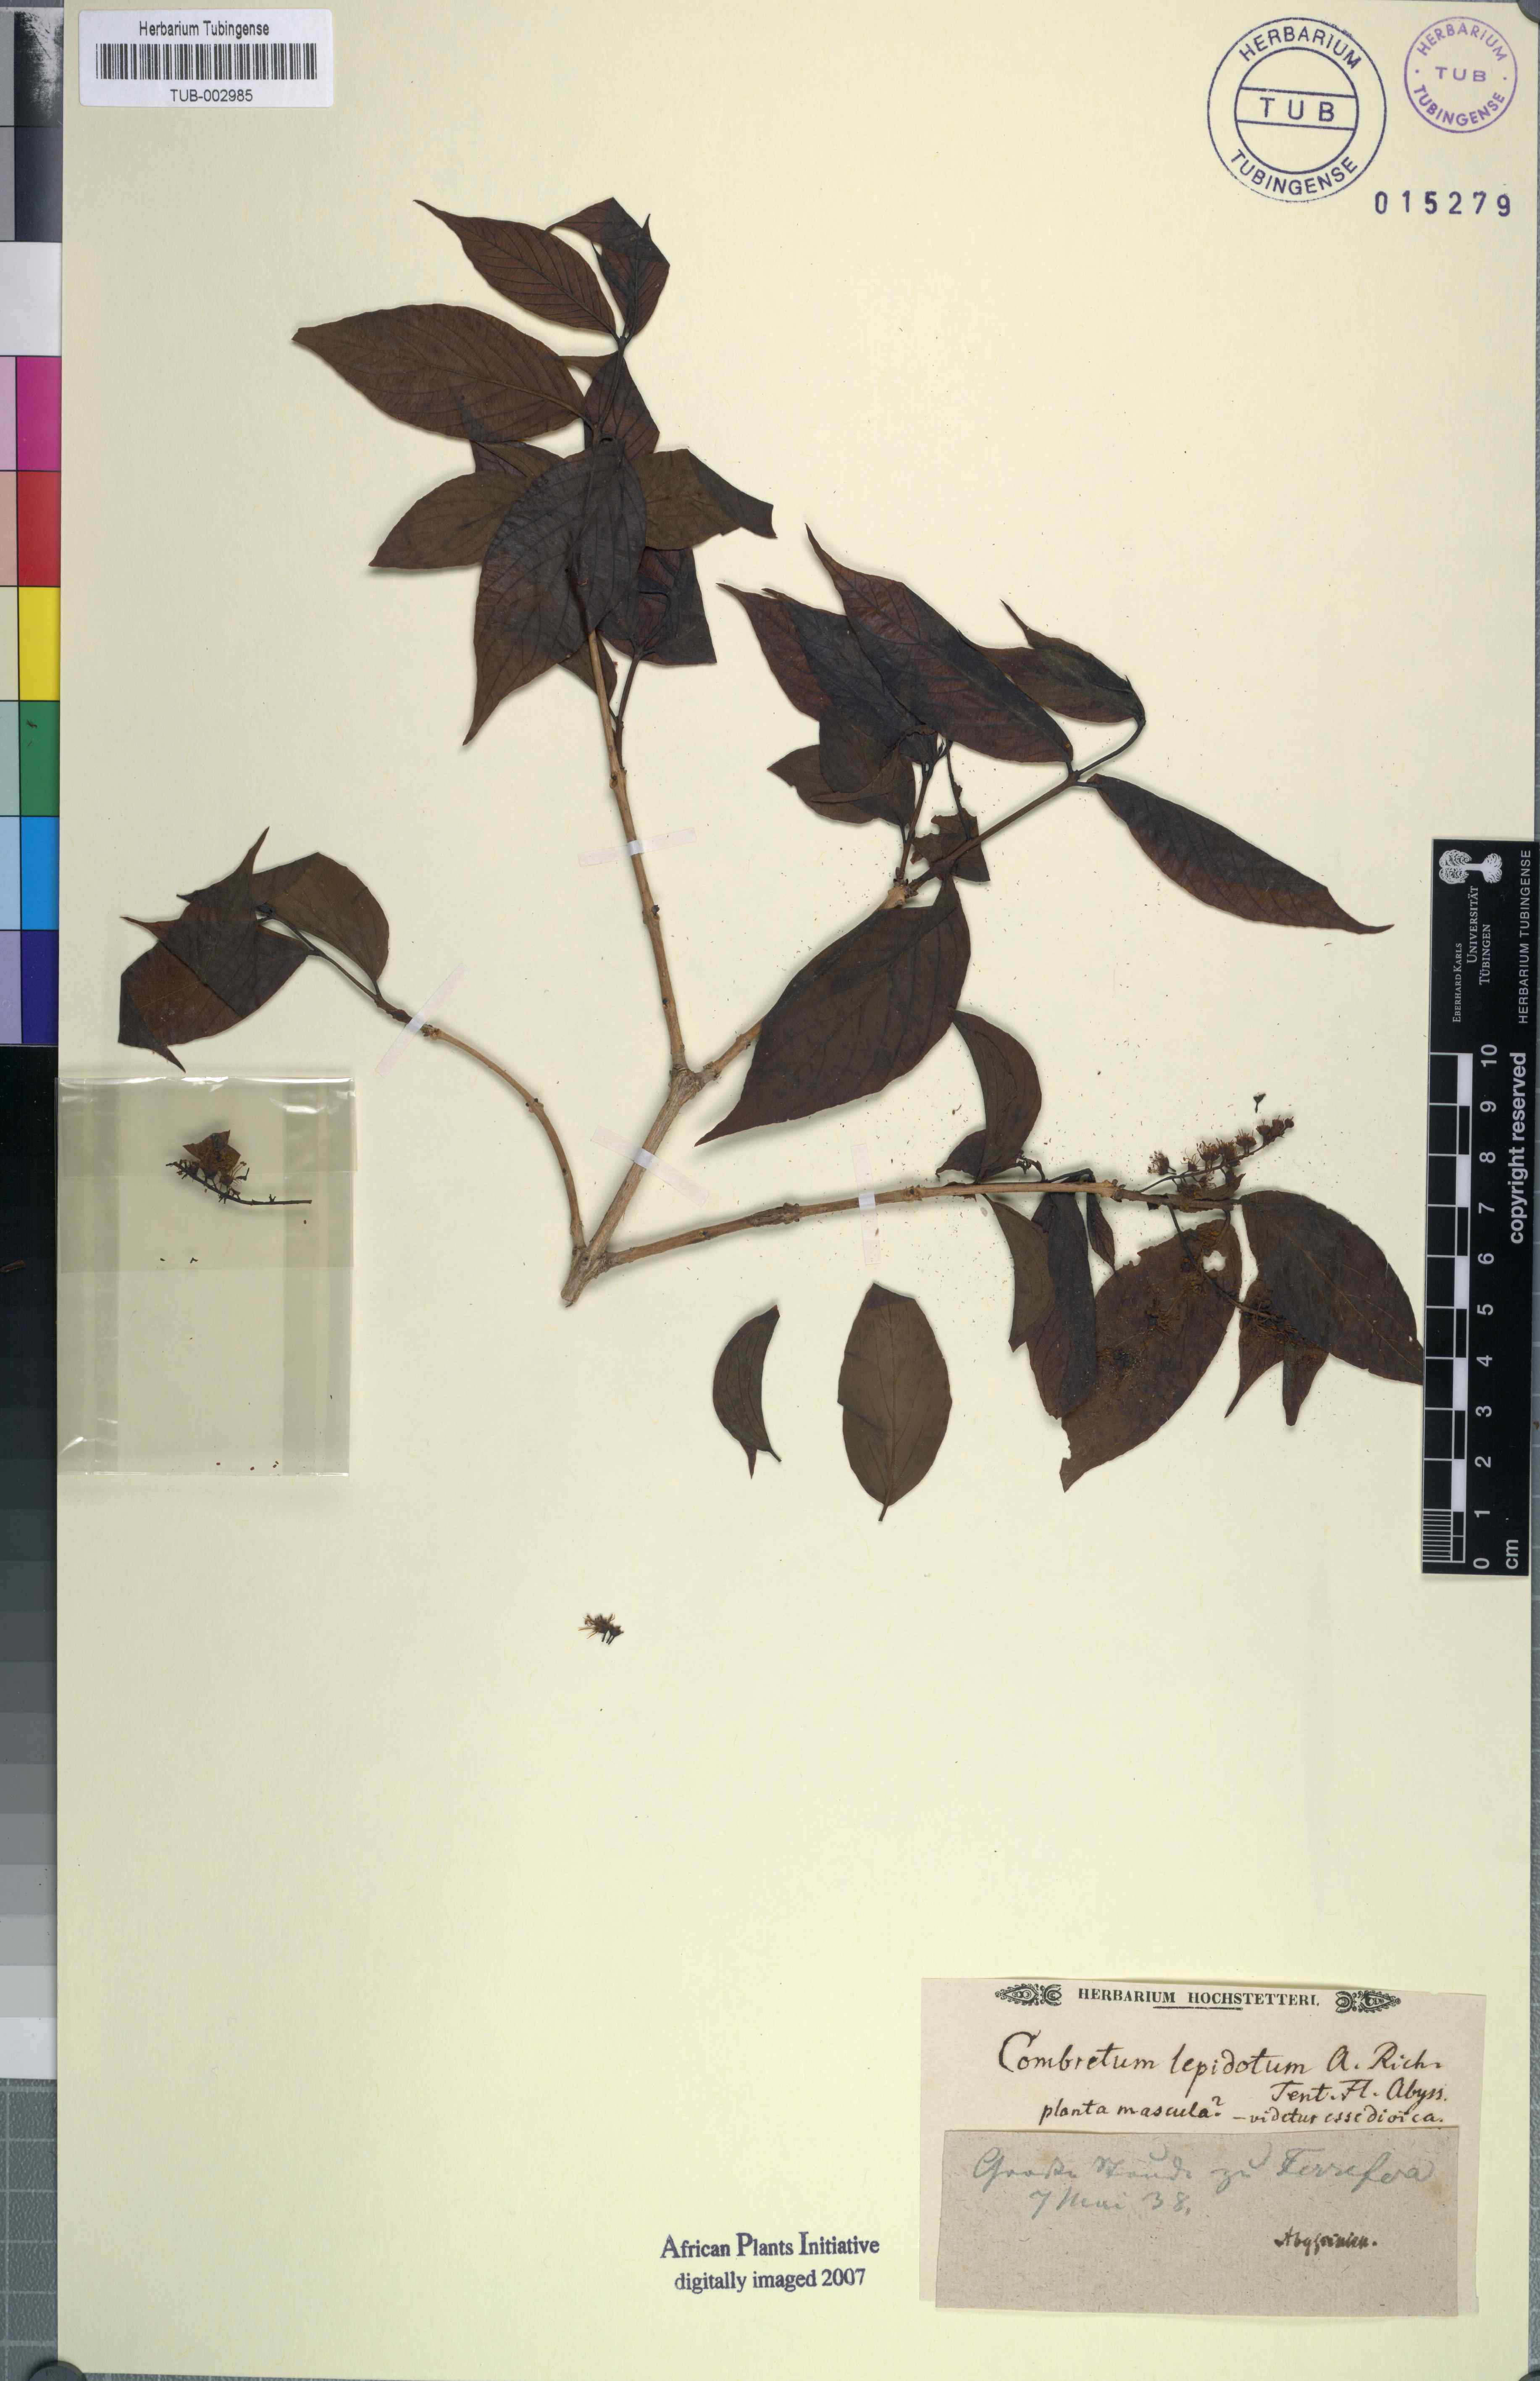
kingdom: Plantae
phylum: Tracheophyta
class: Magnoliopsida
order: Myrtales
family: Combretaceae
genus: Combretum
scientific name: Combretum molle
